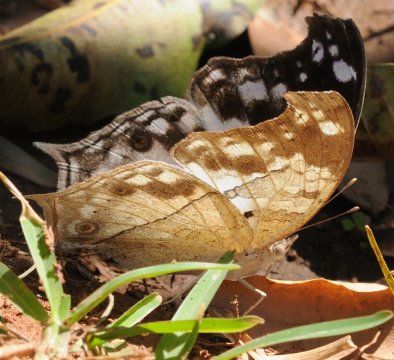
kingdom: Animalia
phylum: Arthropoda
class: Insecta
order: Lepidoptera
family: Nymphalidae
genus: Salamis
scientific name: Salamis anacardii
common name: Clouded Mother-of-Pearl
